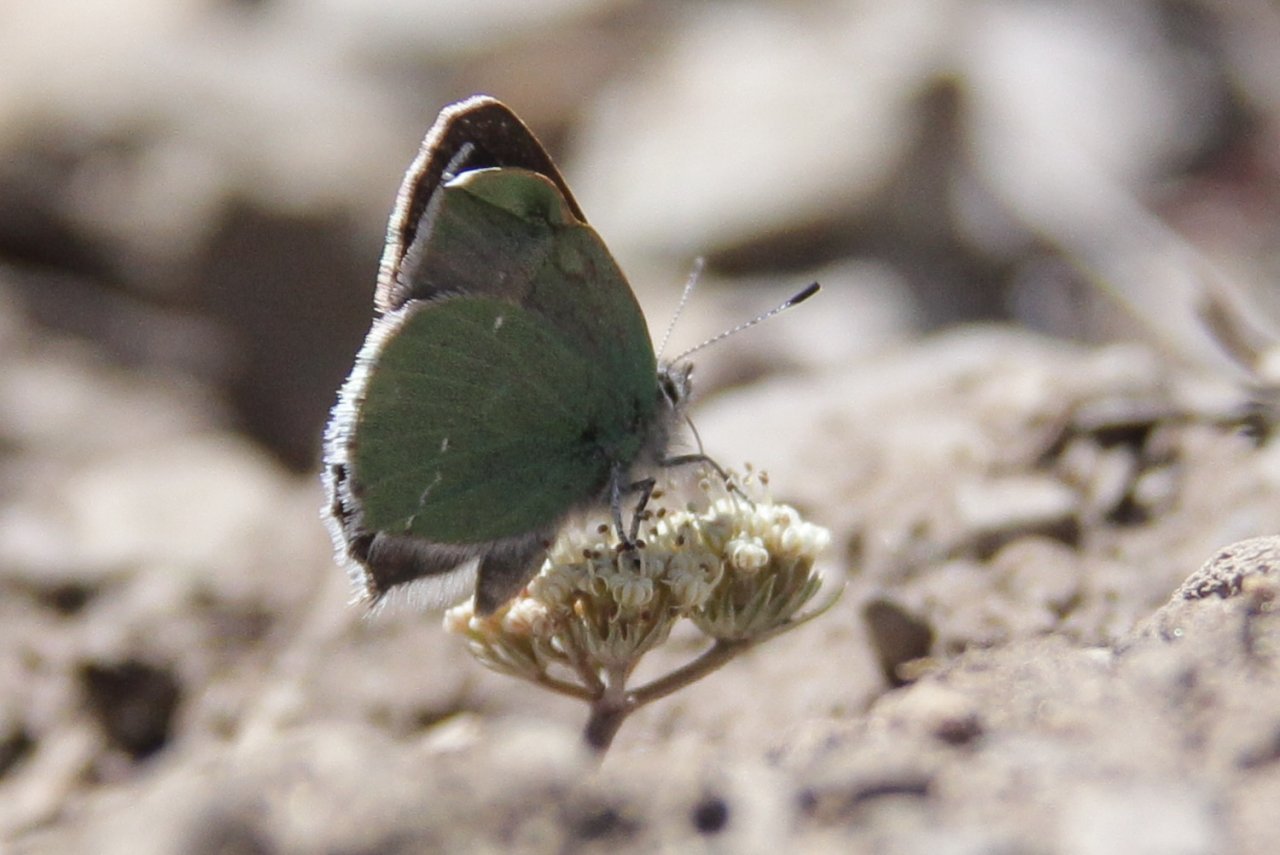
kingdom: Animalia
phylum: Arthropoda
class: Insecta
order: Lepidoptera
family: Lycaenidae
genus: Thecla
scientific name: Thecla sheridanii
